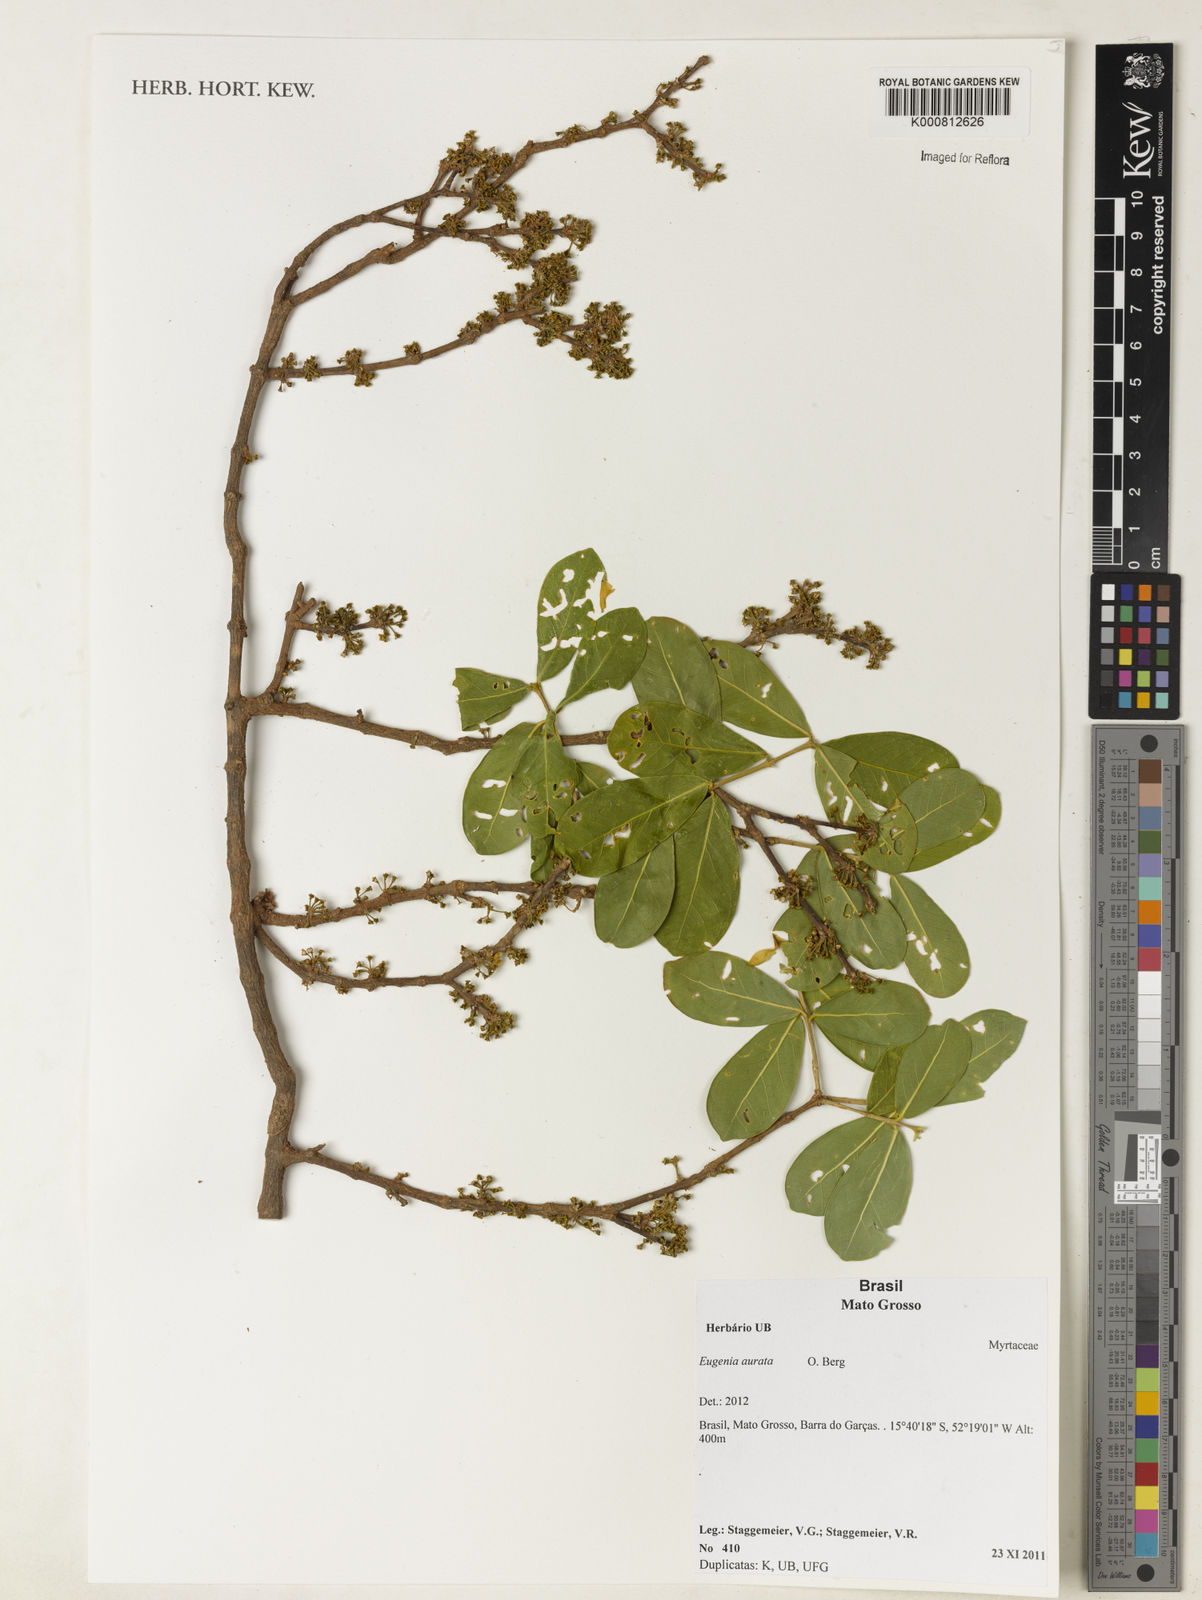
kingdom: Plantae
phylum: Tracheophyta
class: Magnoliopsida
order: Myrtales
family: Myrtaceae
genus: Eugenia
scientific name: Eugenia aurata
